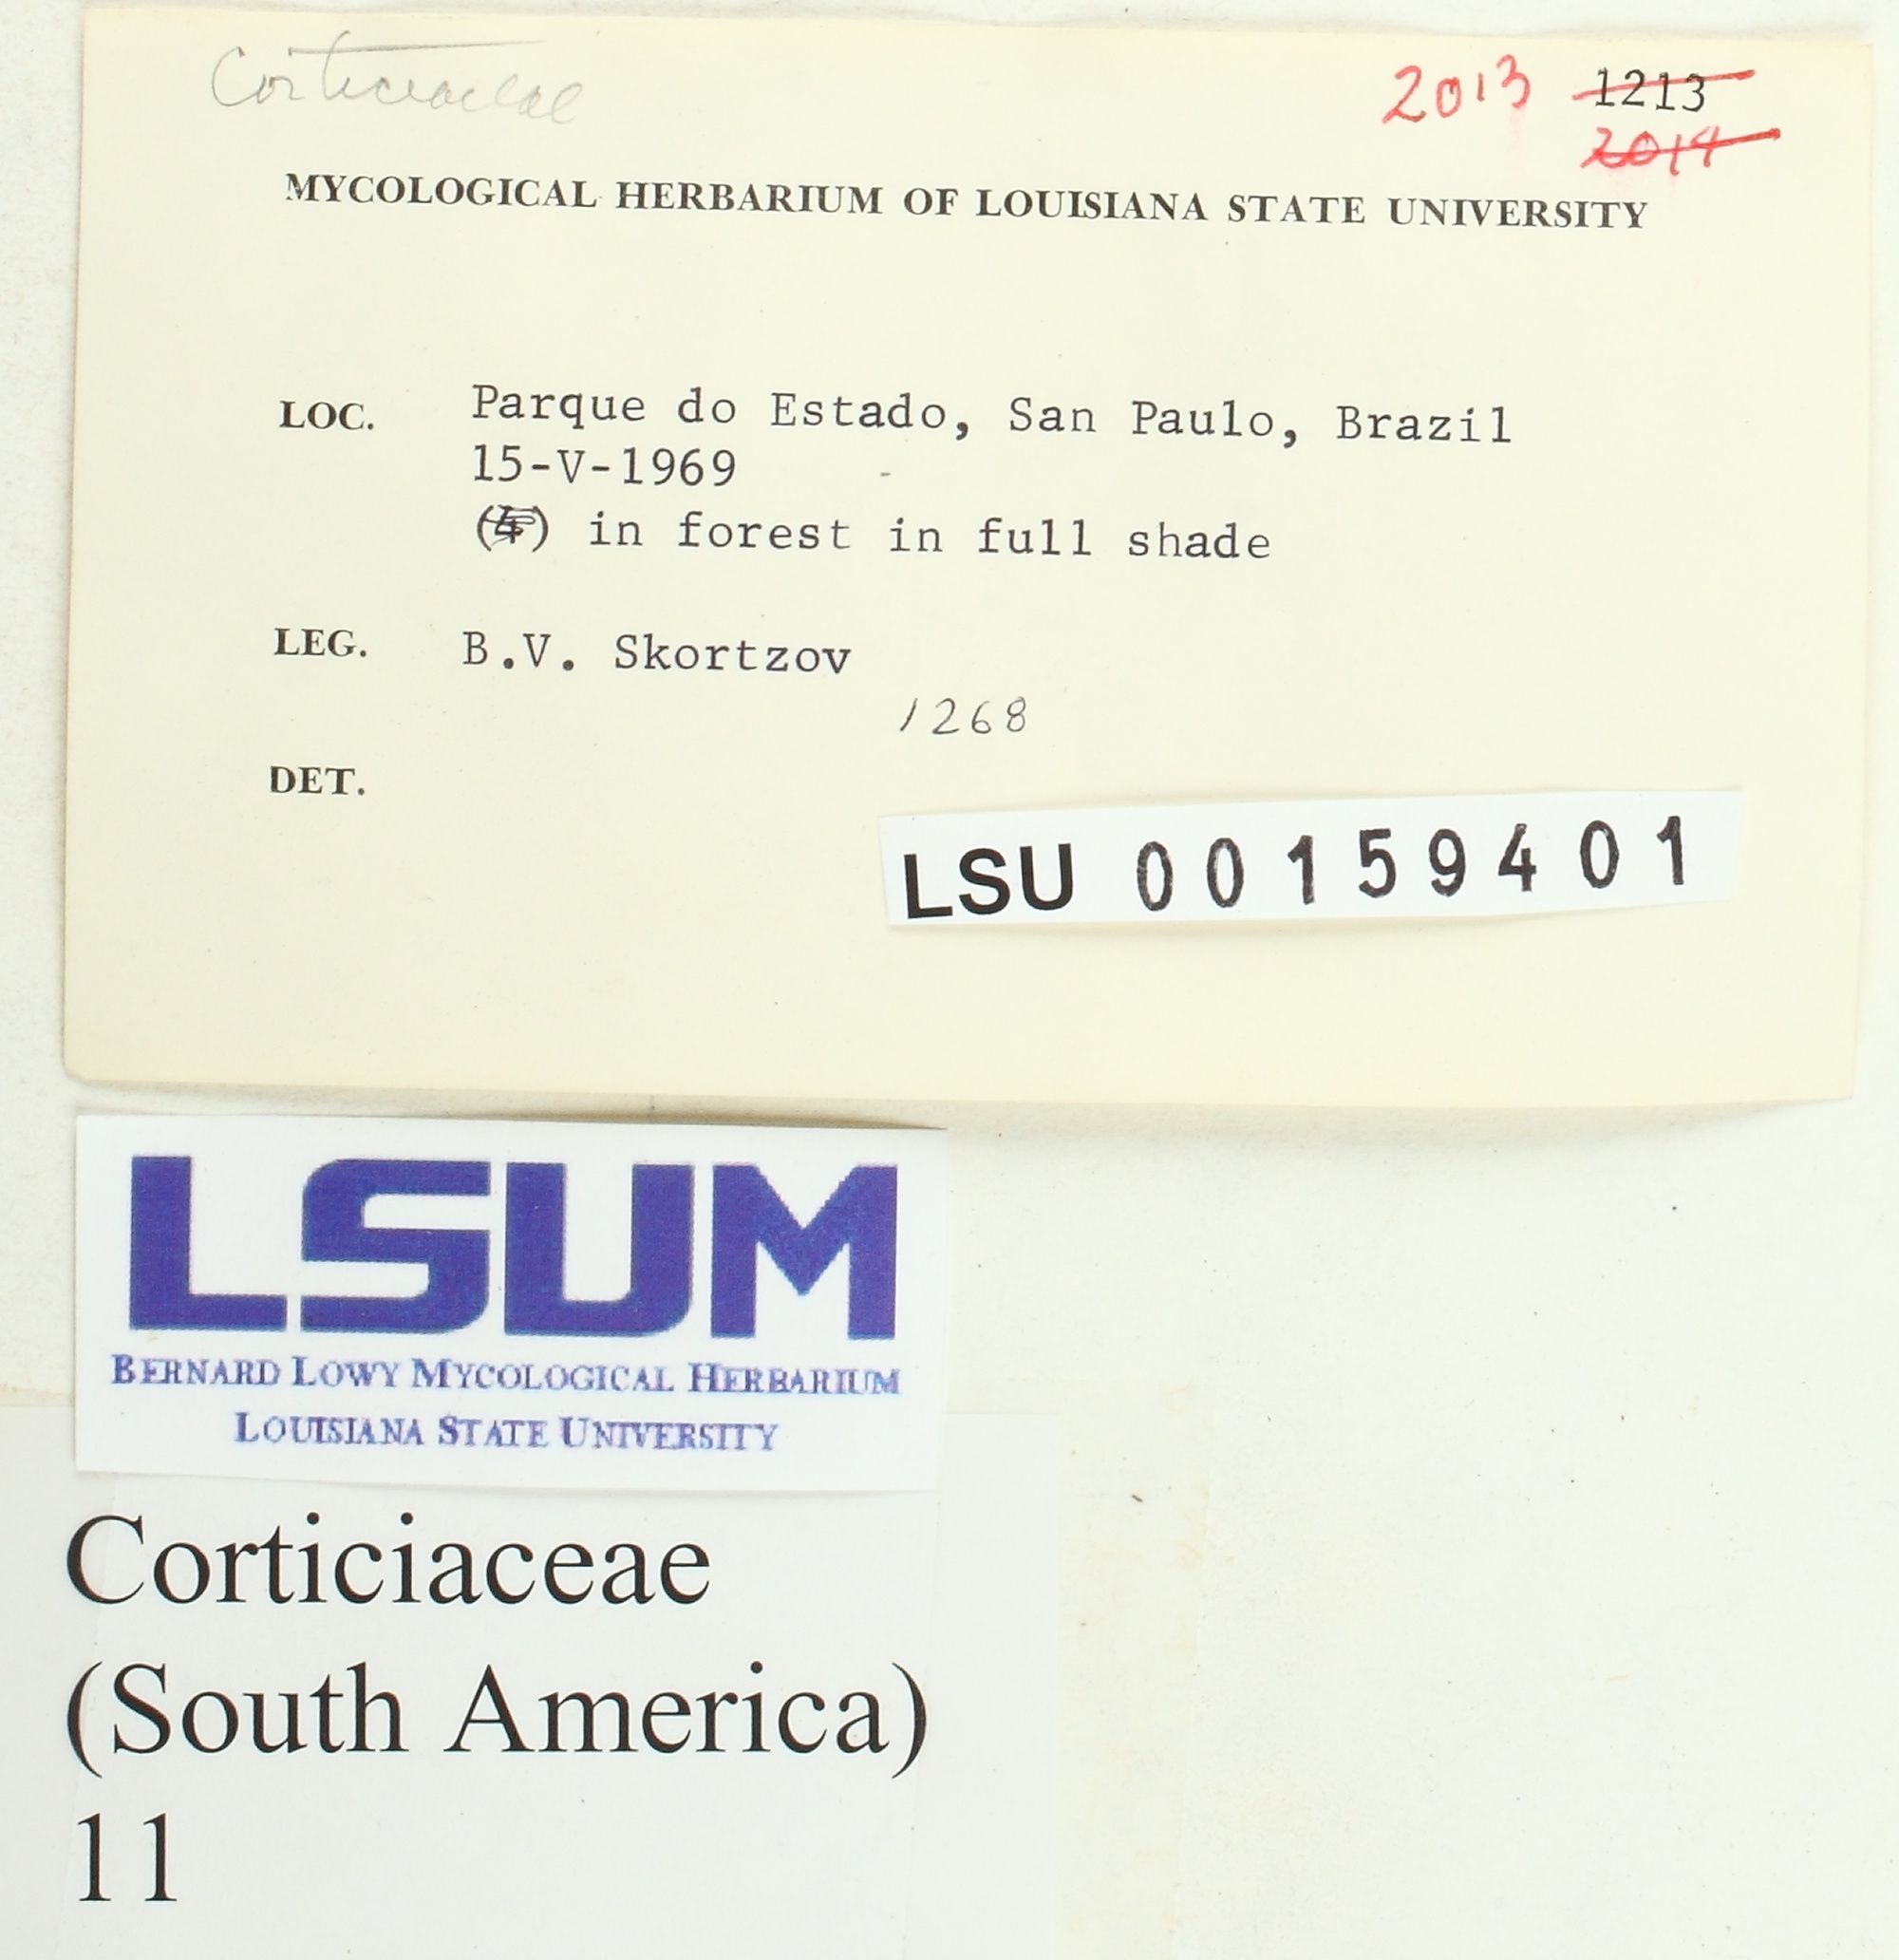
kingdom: Fungi
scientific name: Fungi
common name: Fungi
